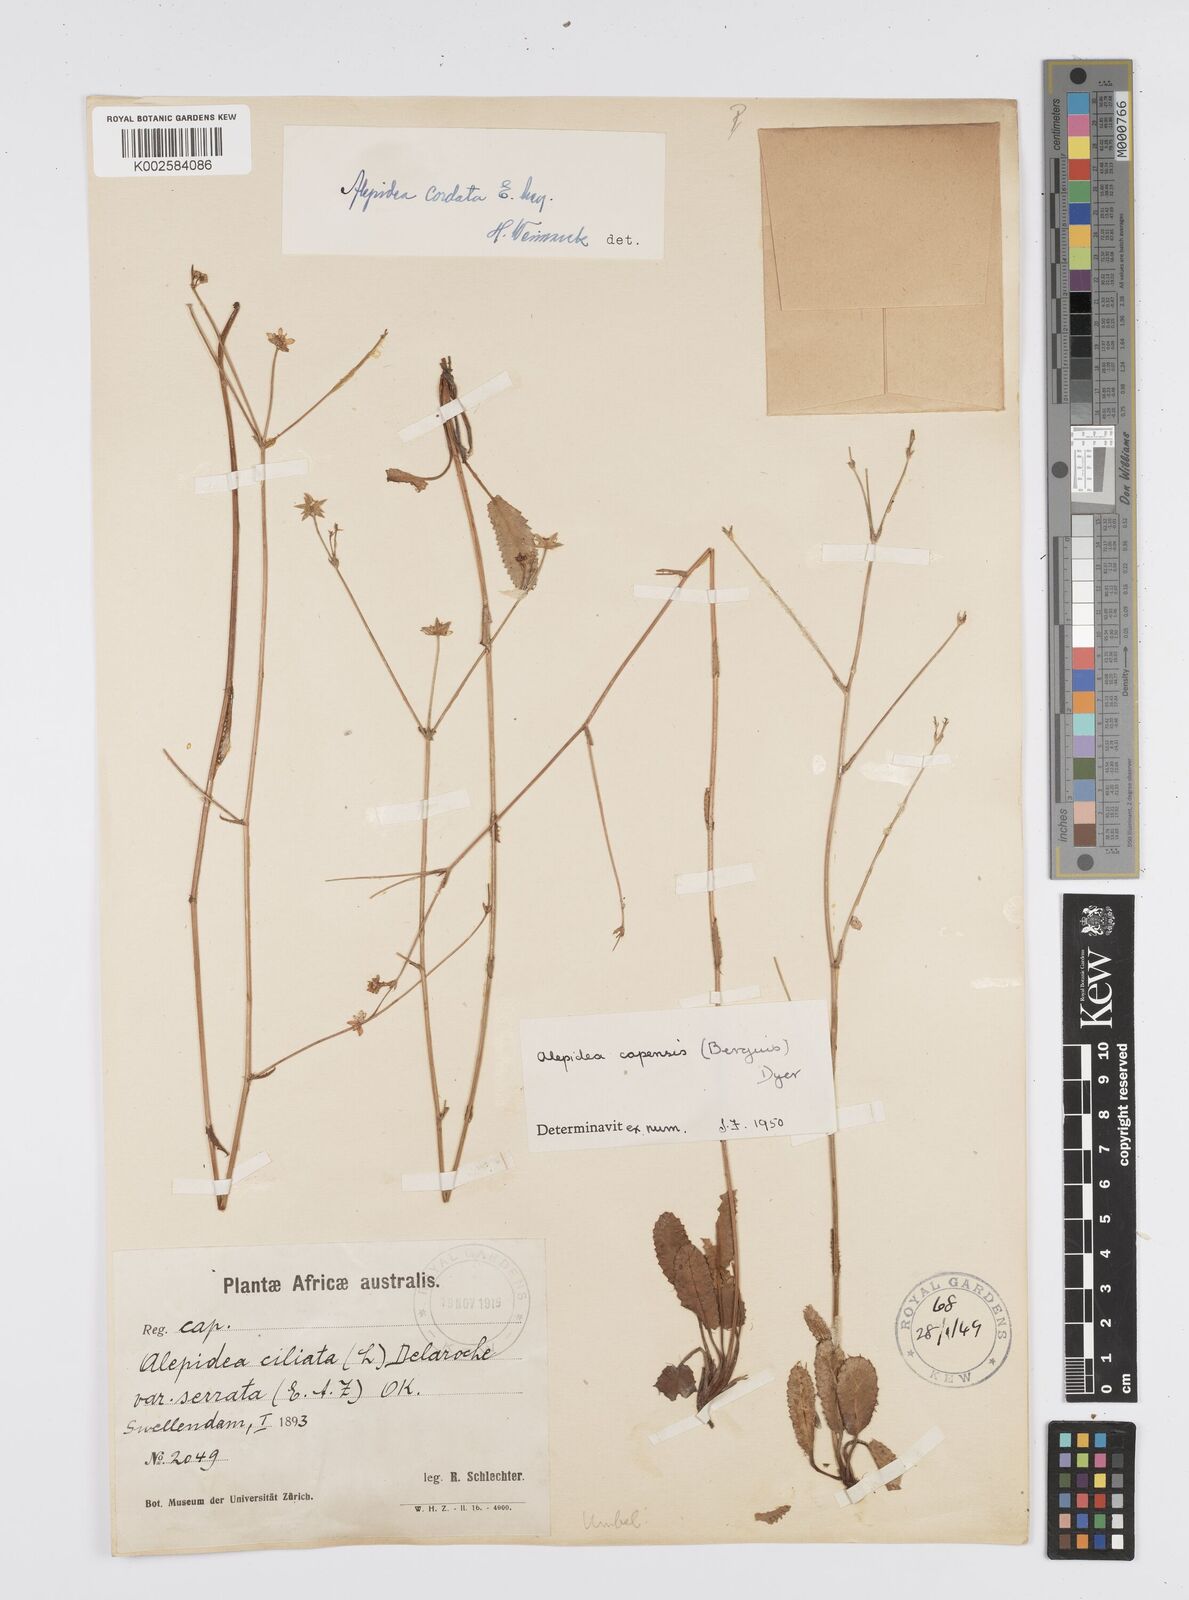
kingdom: Plantae
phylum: Tracheophyta
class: Magnoliopsida
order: Apiales
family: Apiaceae
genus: Alepidea
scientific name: Alepidea capensis
